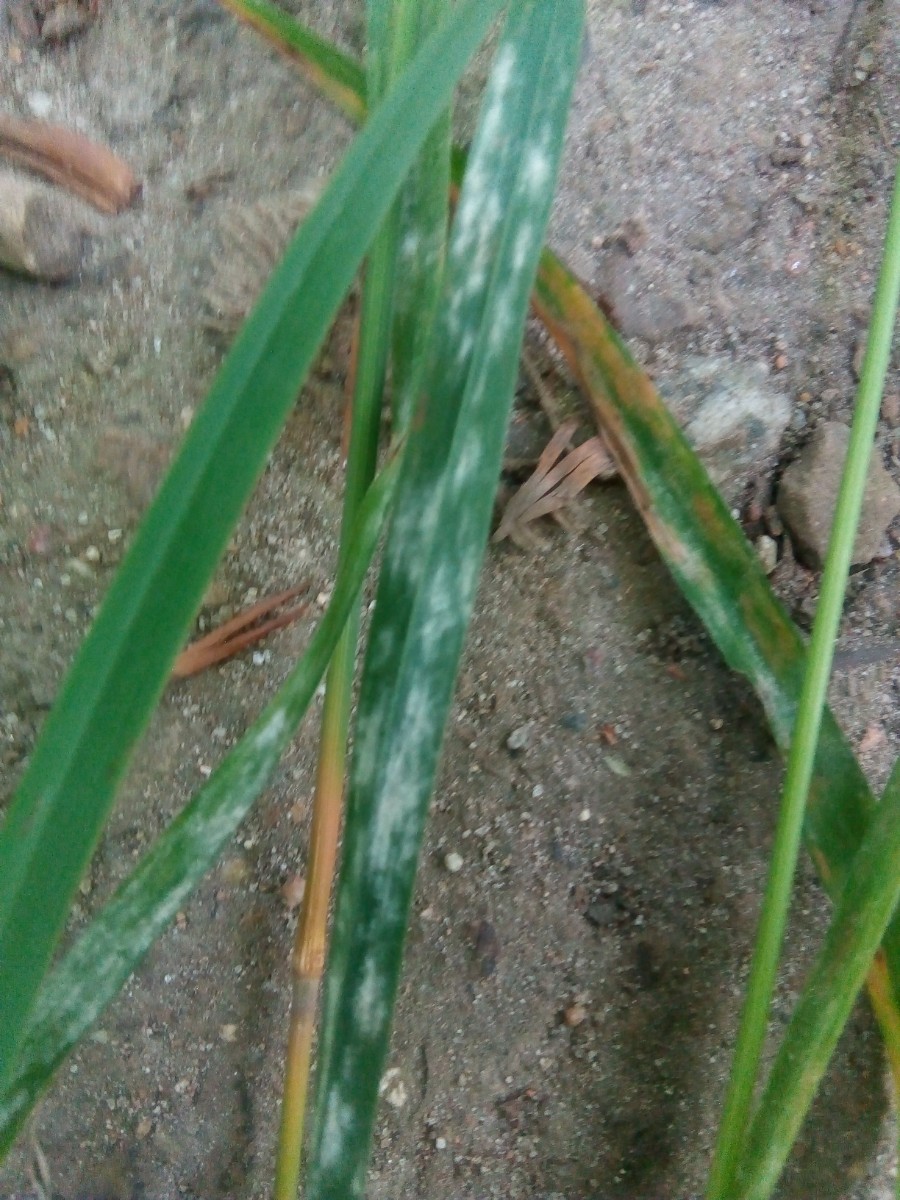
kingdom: Fungi
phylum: Ascomycota
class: Leotiomycetes
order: Helotiales
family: Erysiphaceae
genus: Blumeria
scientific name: Blumeria graminis
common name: græs-meldug
